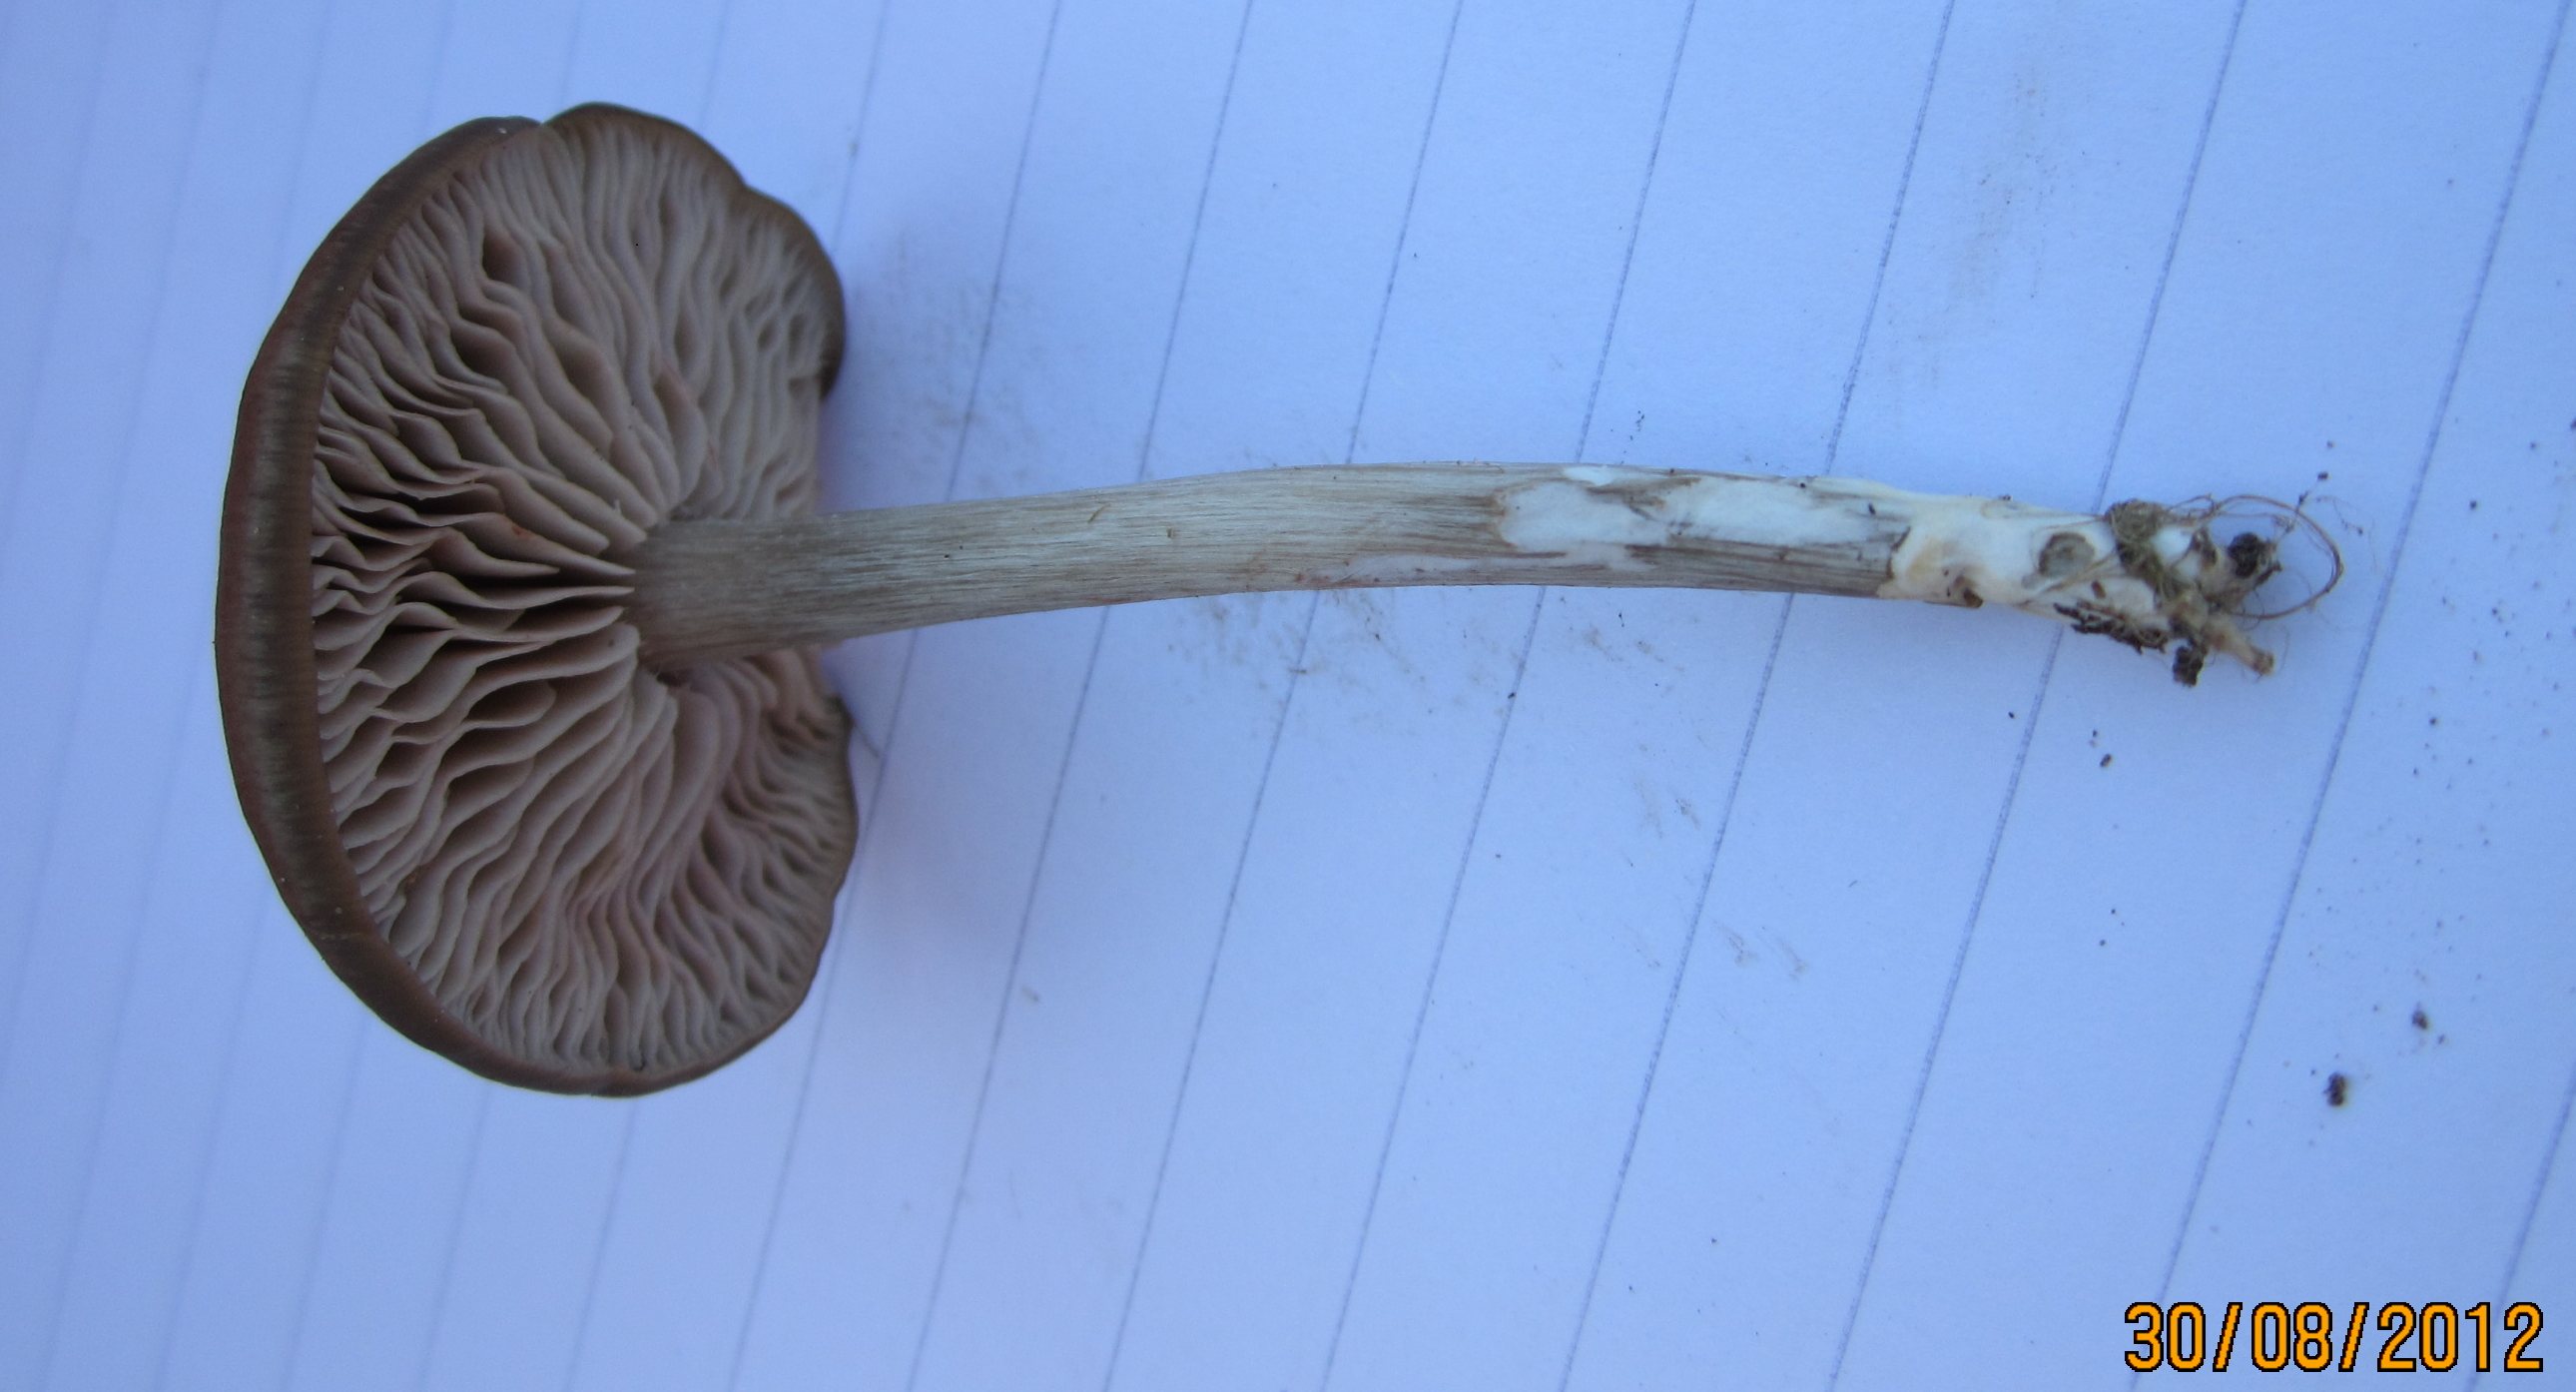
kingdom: Fungi
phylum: Basidiomycota
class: Agaricomycetes
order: Agaricales
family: Entolomataceae
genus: Entoloma
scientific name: Entoloma sericeum
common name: silkeglinsende rødblad
